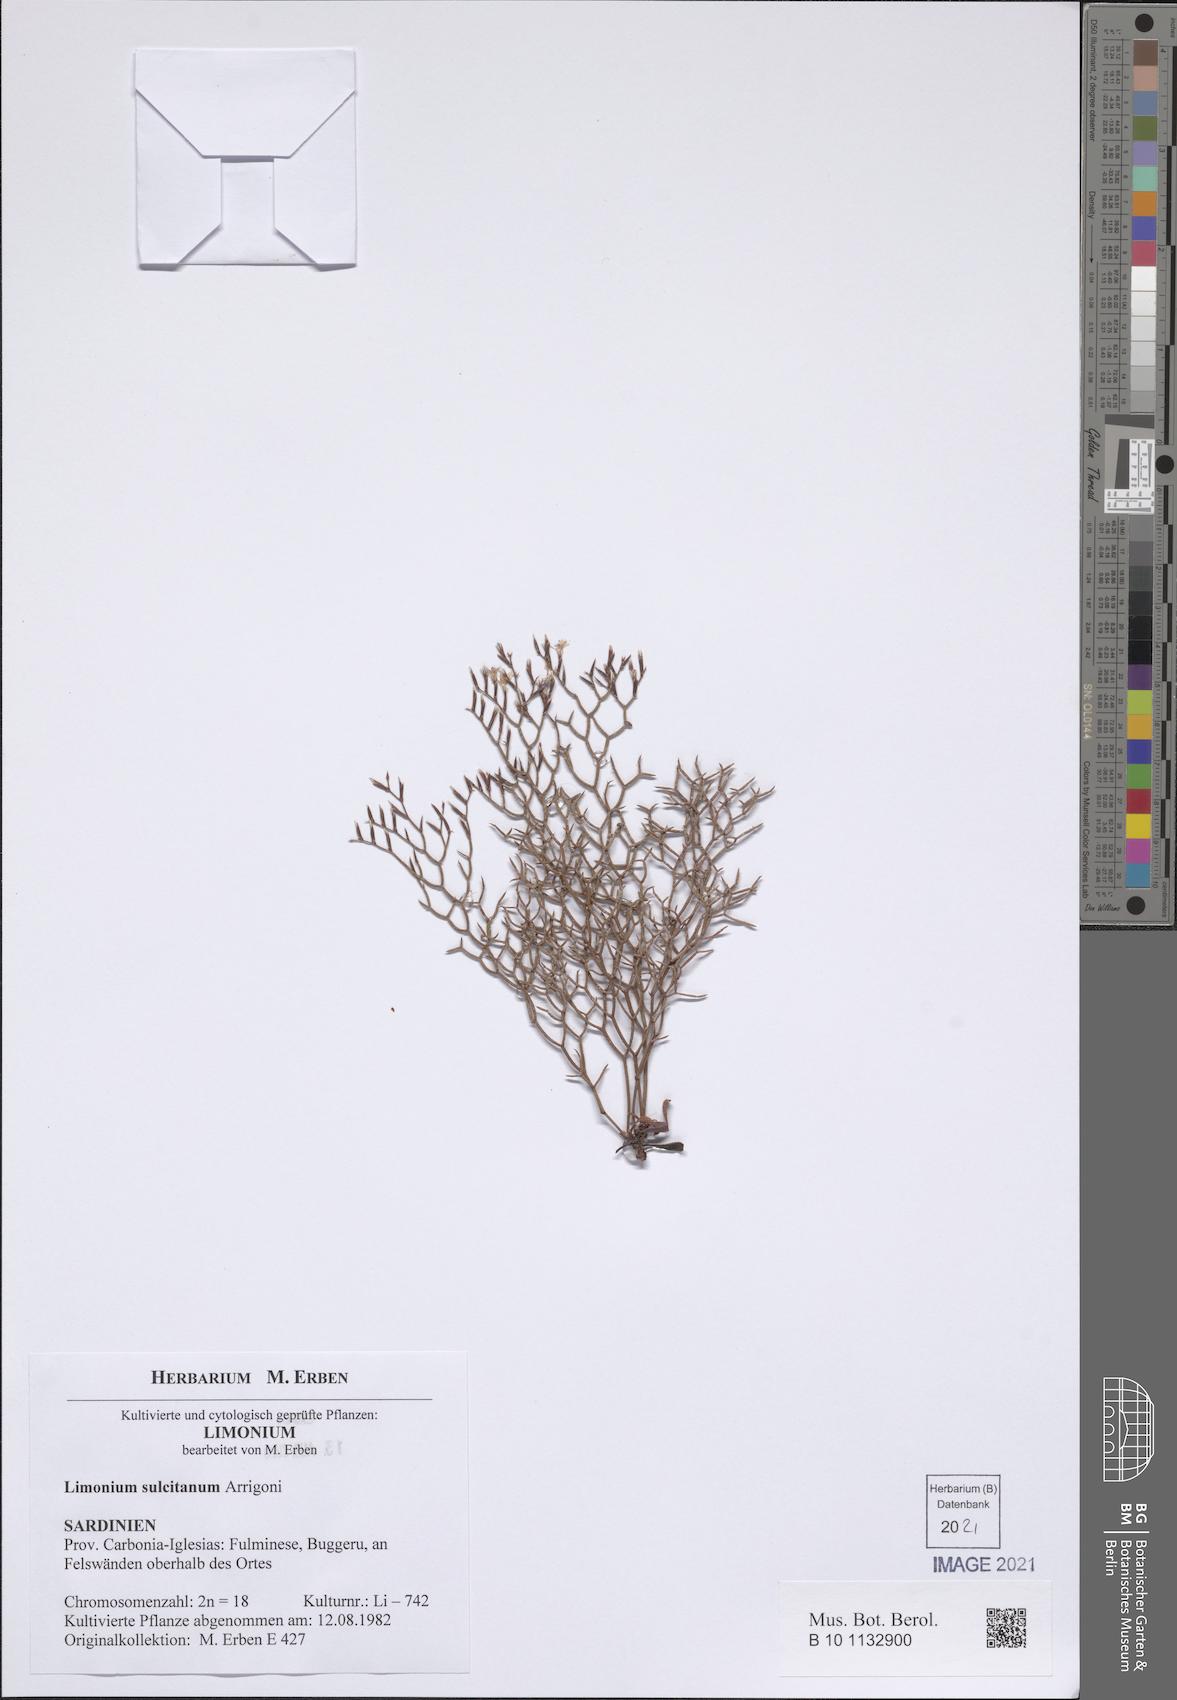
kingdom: Plantae
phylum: Tracheophyta
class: Magnoliopsida
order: Caryophyllales
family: Plumbaginaceae
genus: Limonium
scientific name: Limonium sulcitanum
